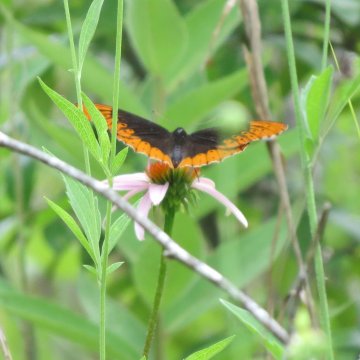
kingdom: Animalia
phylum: Arthropoda
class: Insecta
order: Lepidoptera
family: Nymphalidae
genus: Speyeria
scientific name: Speyeria diana
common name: Diana Fritillary
